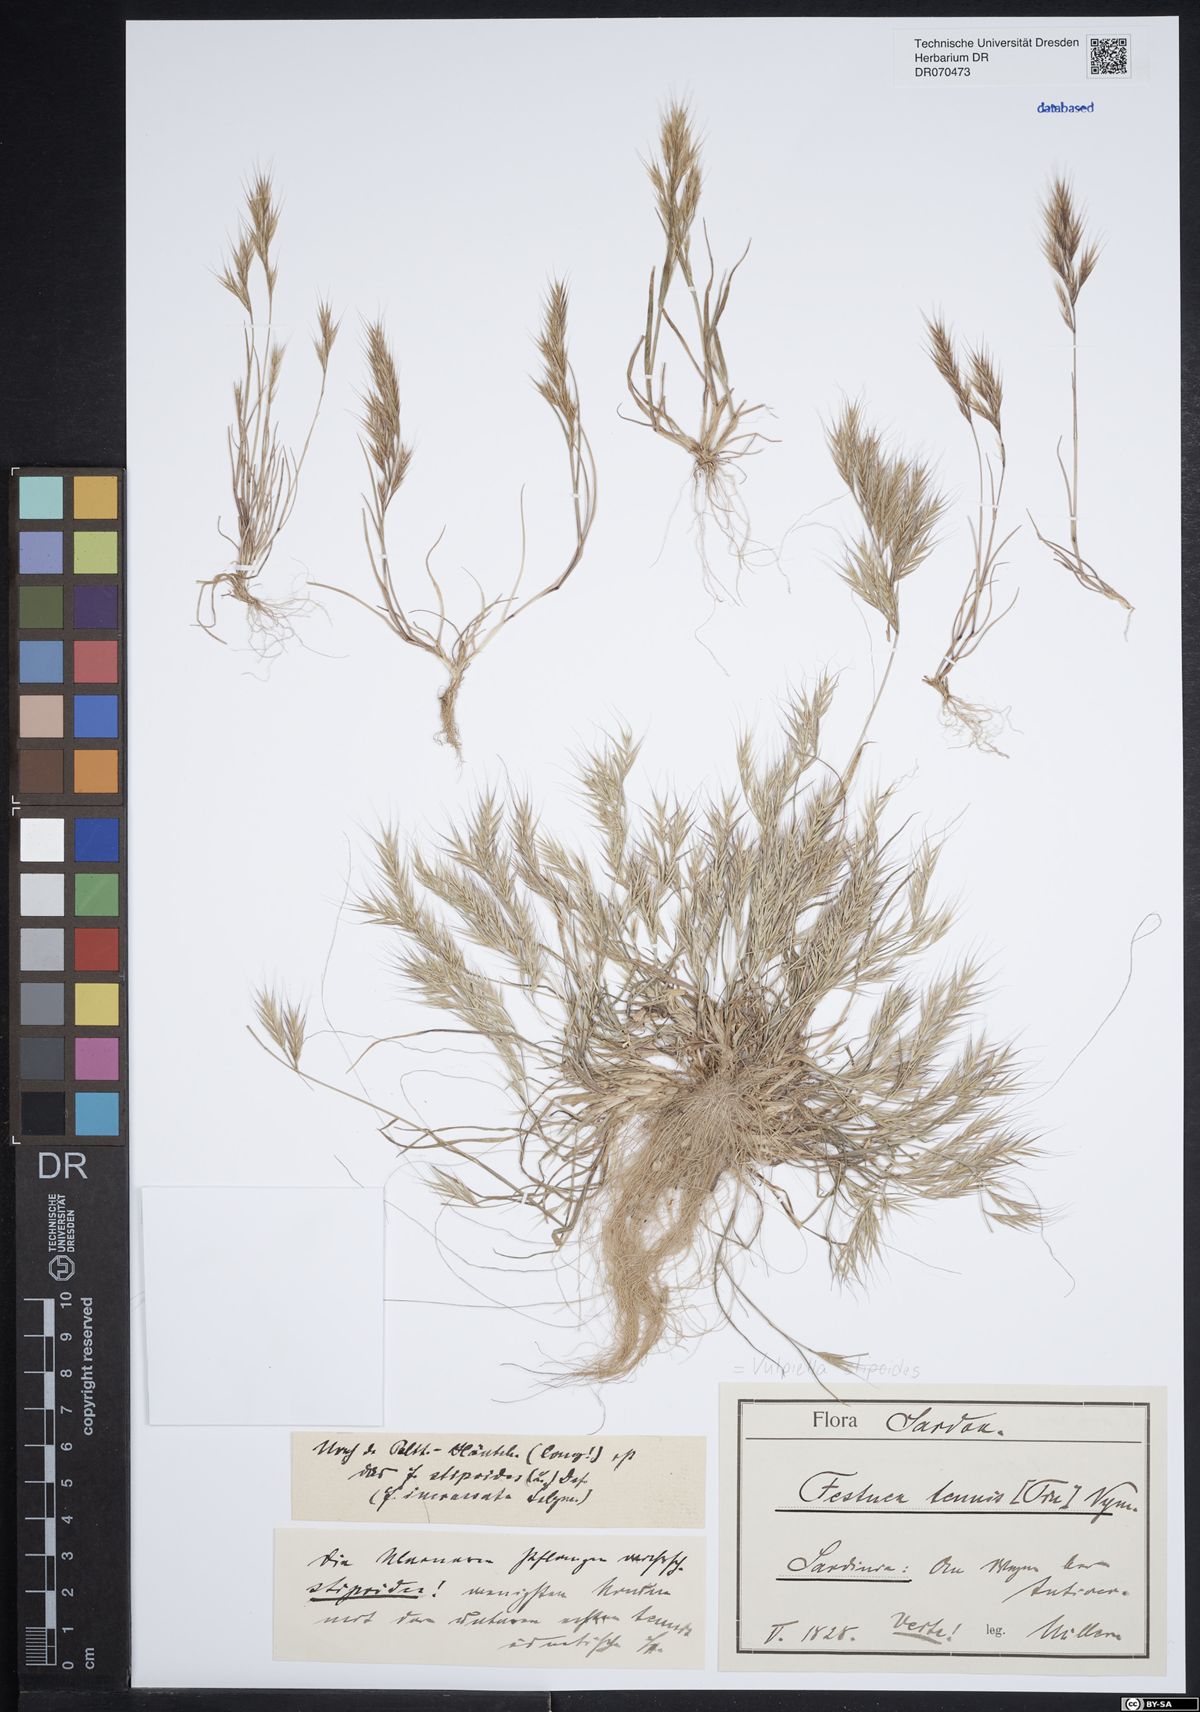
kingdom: Plantae
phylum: Tracheophyta
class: Liliopsida
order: Poales
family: Poaceae
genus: Vulpiella
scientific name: Vulpiella stipoides
